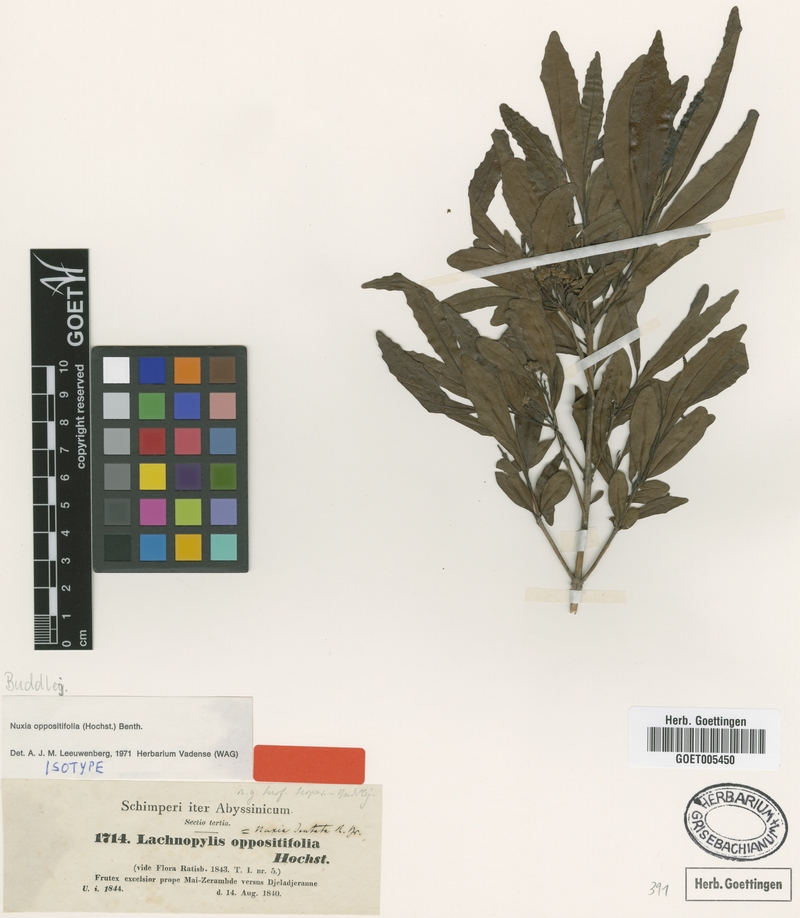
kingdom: Plantae
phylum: Tracheophyta
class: Magnoliopsida
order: Lamiales
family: Stilbaceae
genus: Nuxia
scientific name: Nuxia oppositifolia
